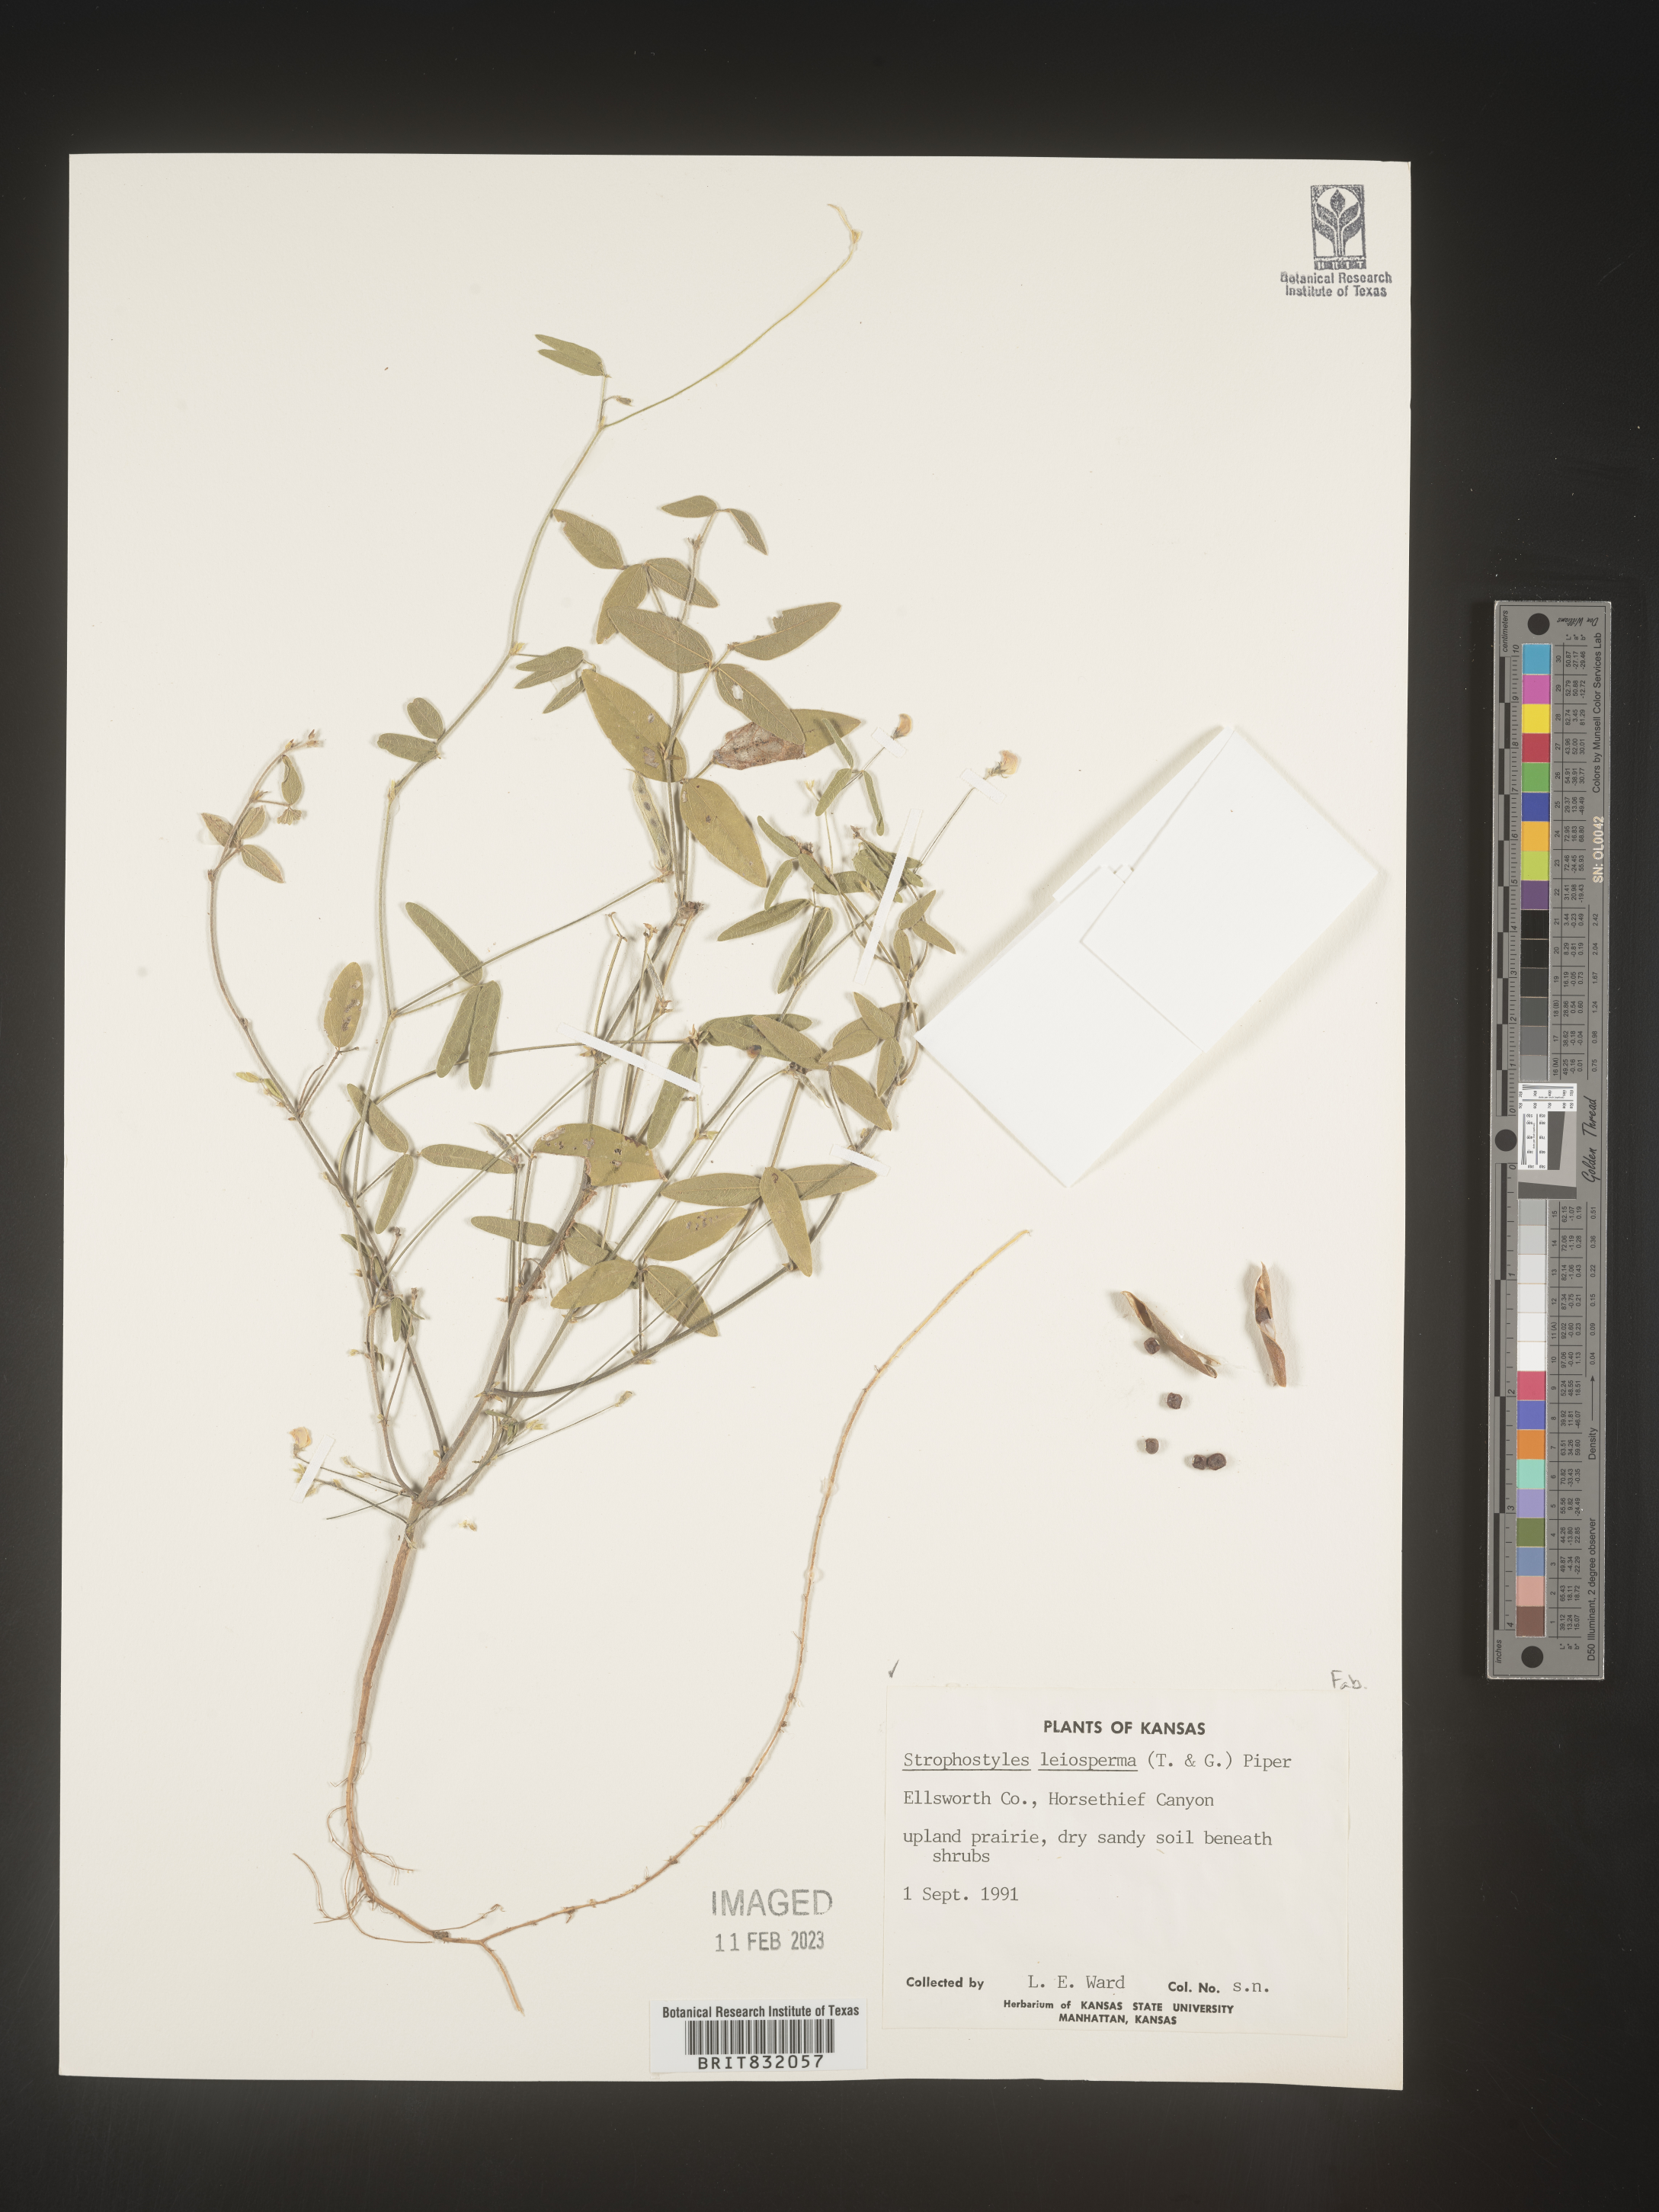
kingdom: Plantae
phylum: Tracheophyta
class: Magnoliopsida
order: Fabales
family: Fabaceae
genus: Strophostyles
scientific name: Strophostyles leiosperma
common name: Smooth-seed wild bean
